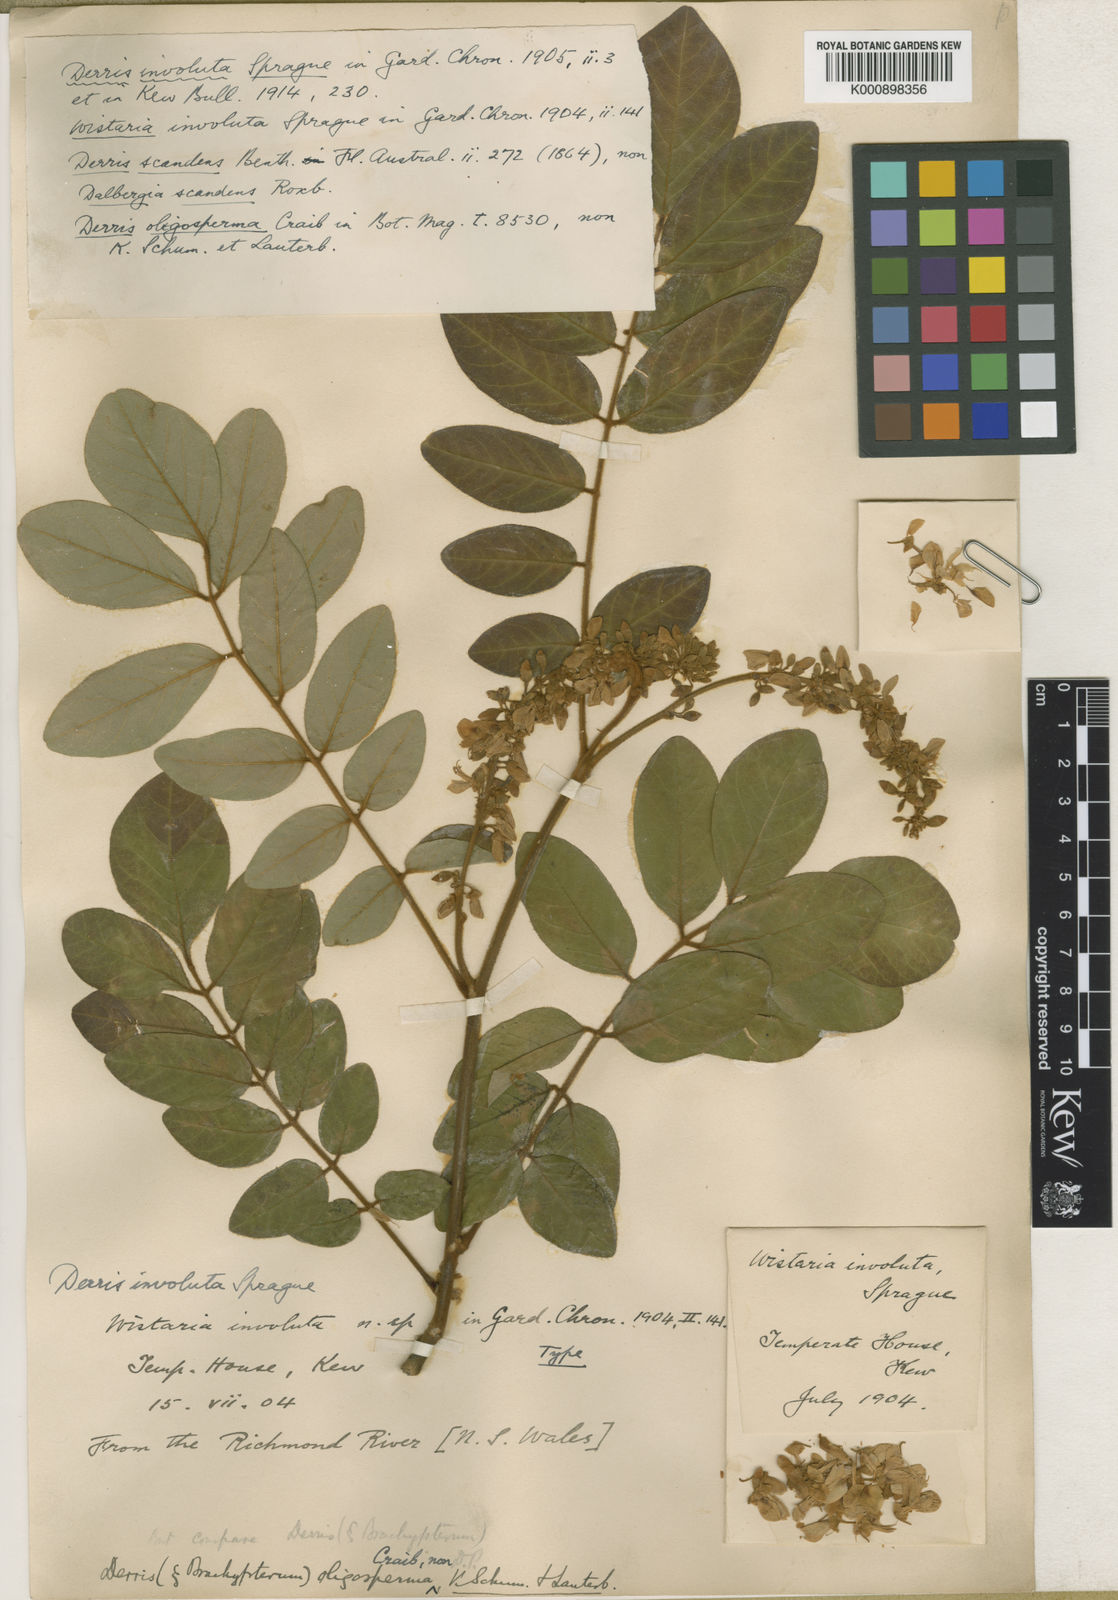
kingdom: Plantae
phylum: Tracheophyta
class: Magnoliopsida
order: Fabales
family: Fabaceae
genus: Brachypterum
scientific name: Brachypterum involutum
